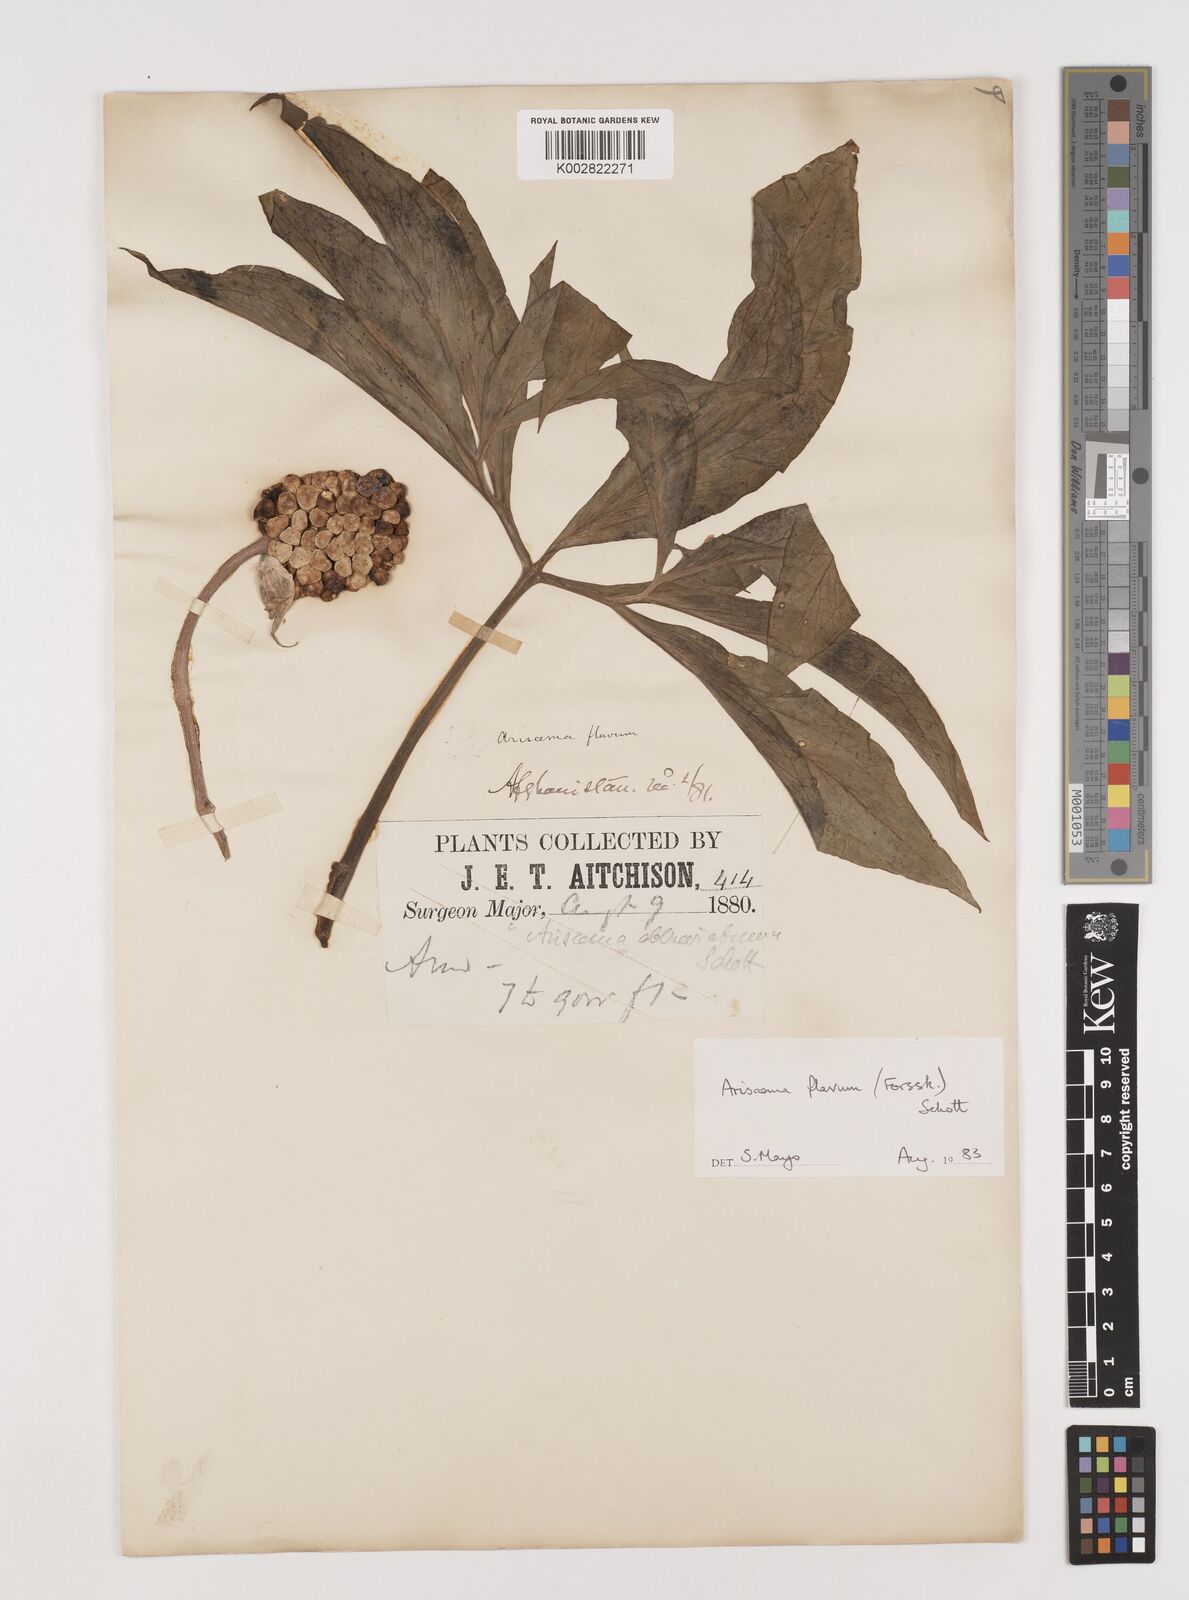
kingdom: Plantae
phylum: Tracheophyta
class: Liliopsida
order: Alismatales
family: Araceae
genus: Arisaema
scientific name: Arisaema flavum
